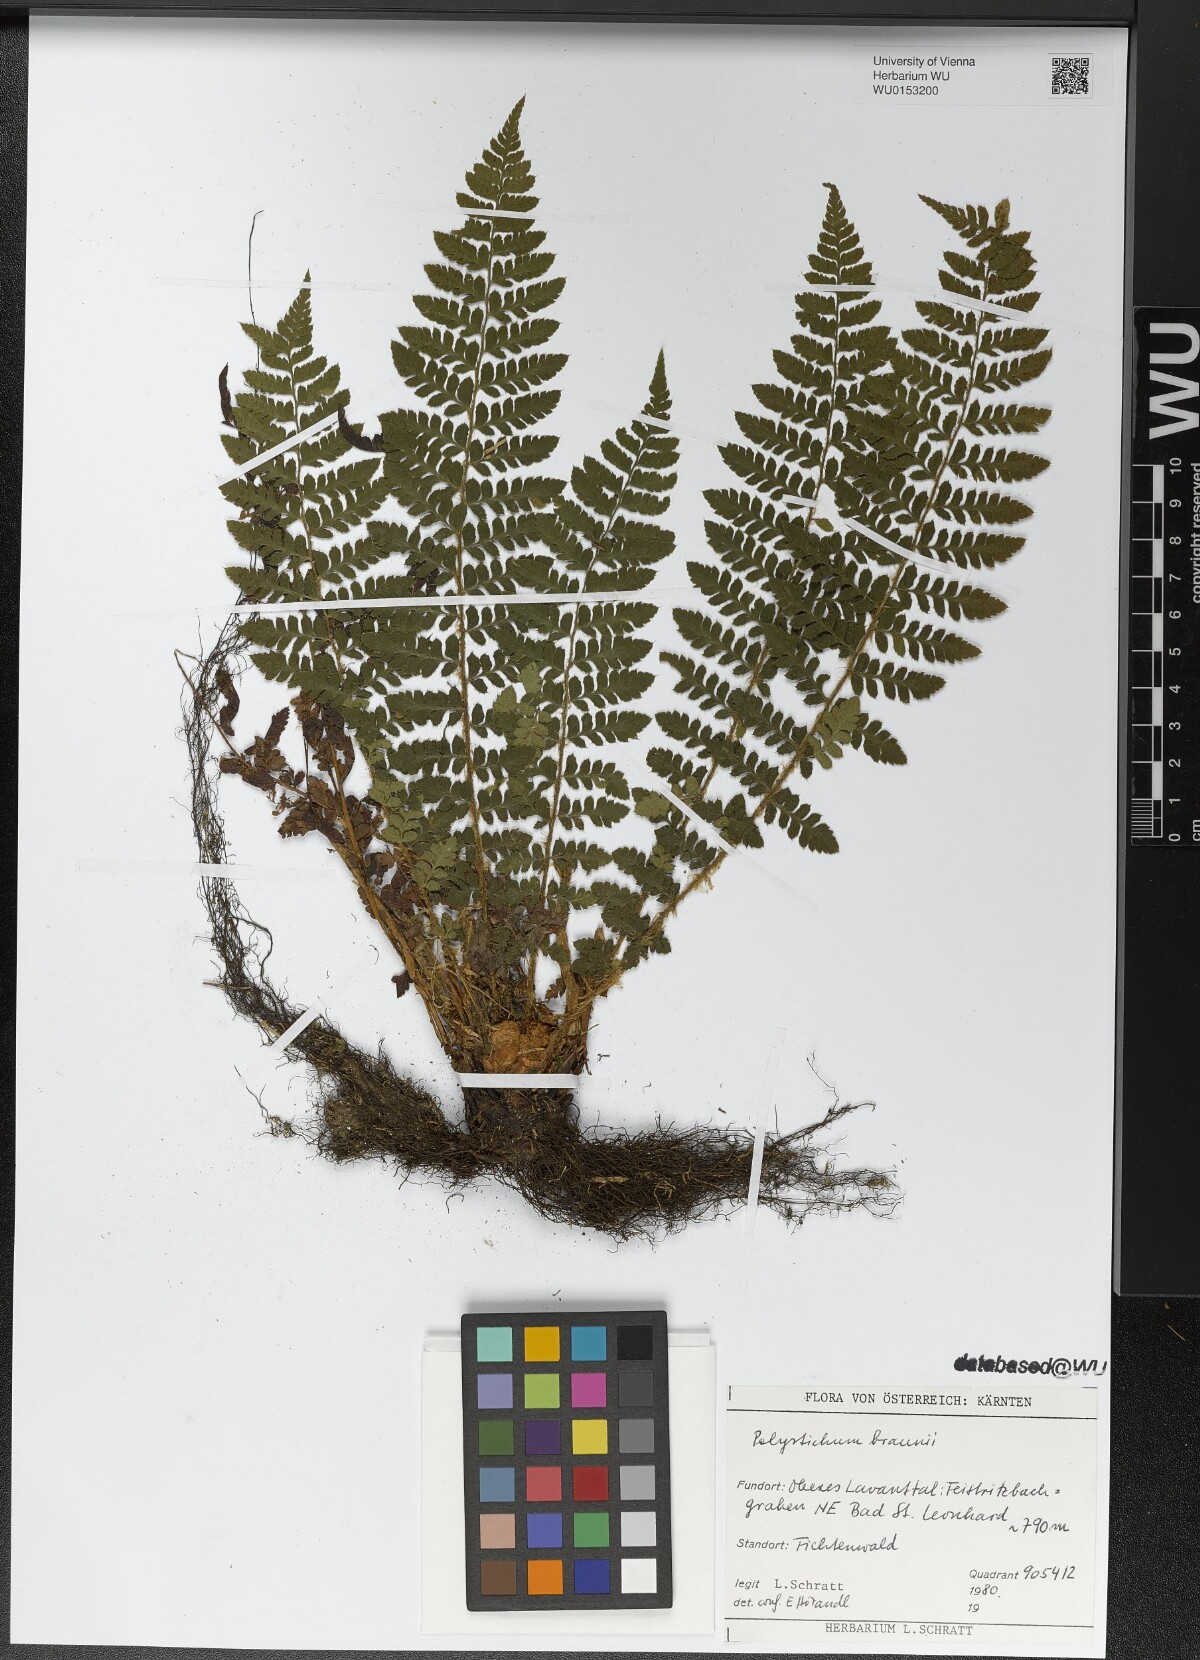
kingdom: Plantae
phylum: Tracheophyta
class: Polypodiopsida
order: Polypodiales
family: Dryopteridaceae
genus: Polystichum
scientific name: Polystichum braunii
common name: Braun's holly fern
